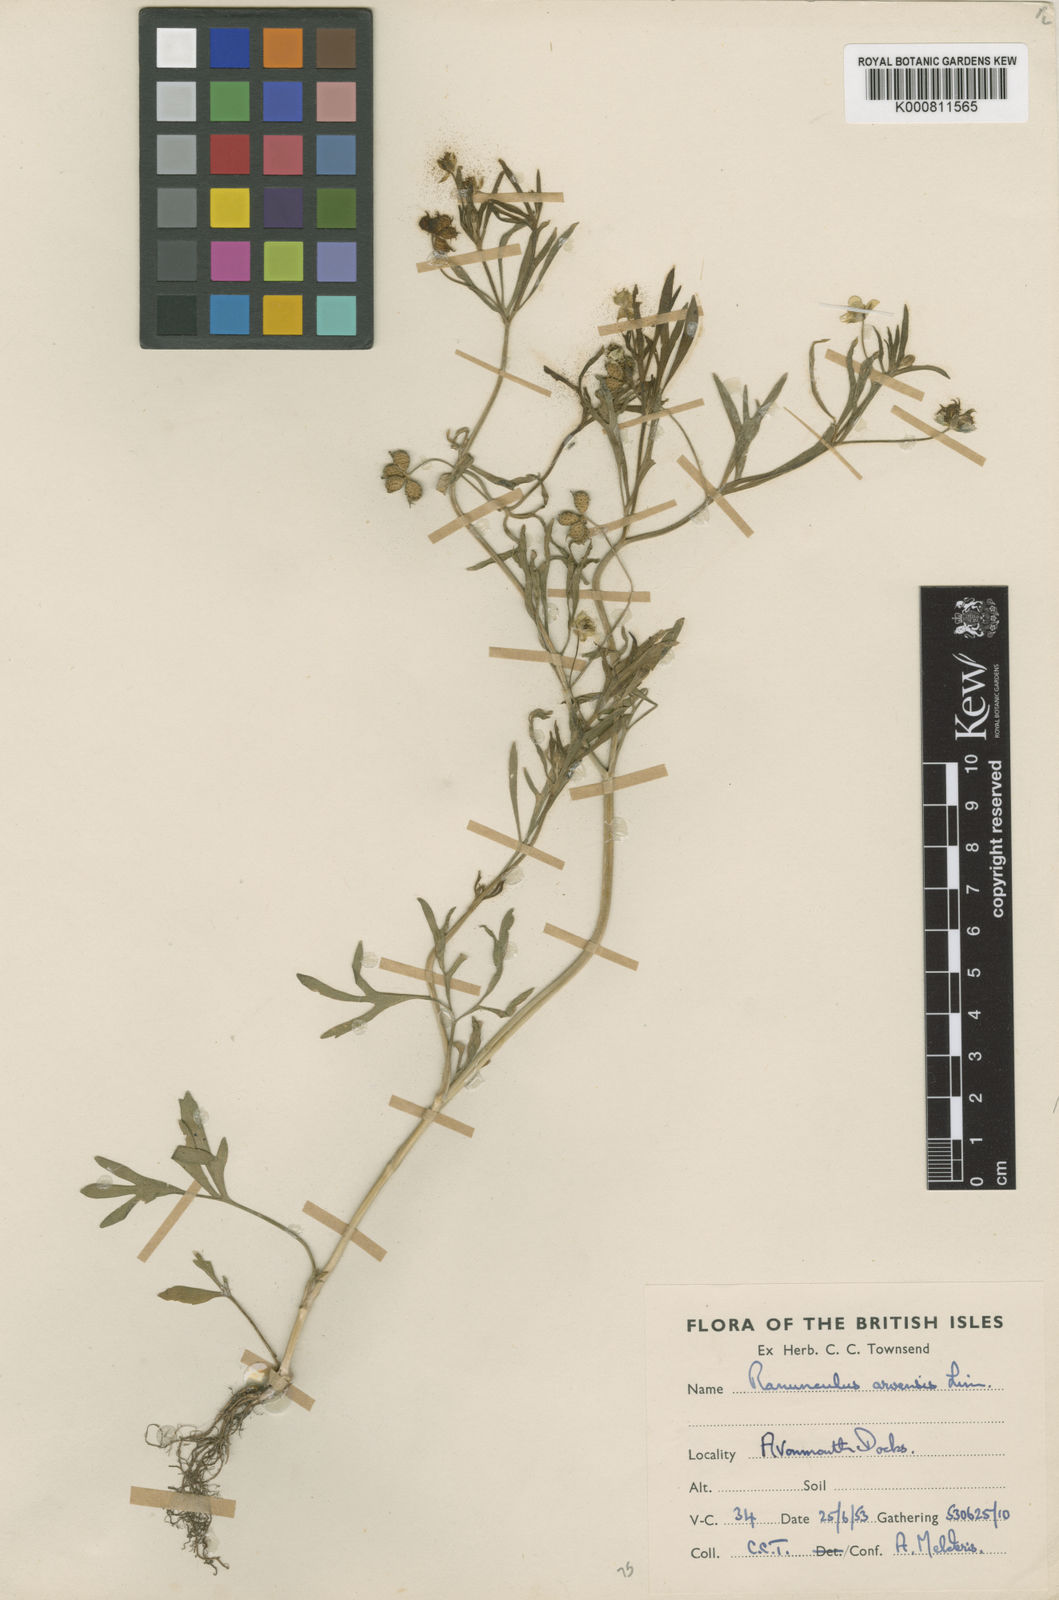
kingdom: Plantae
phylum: Tracheophyta
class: Magnoliopsida
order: Ranunculales
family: Ranunculaceae
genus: Ranunculus
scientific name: Ranunculus arvensis
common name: Corn buttercup
